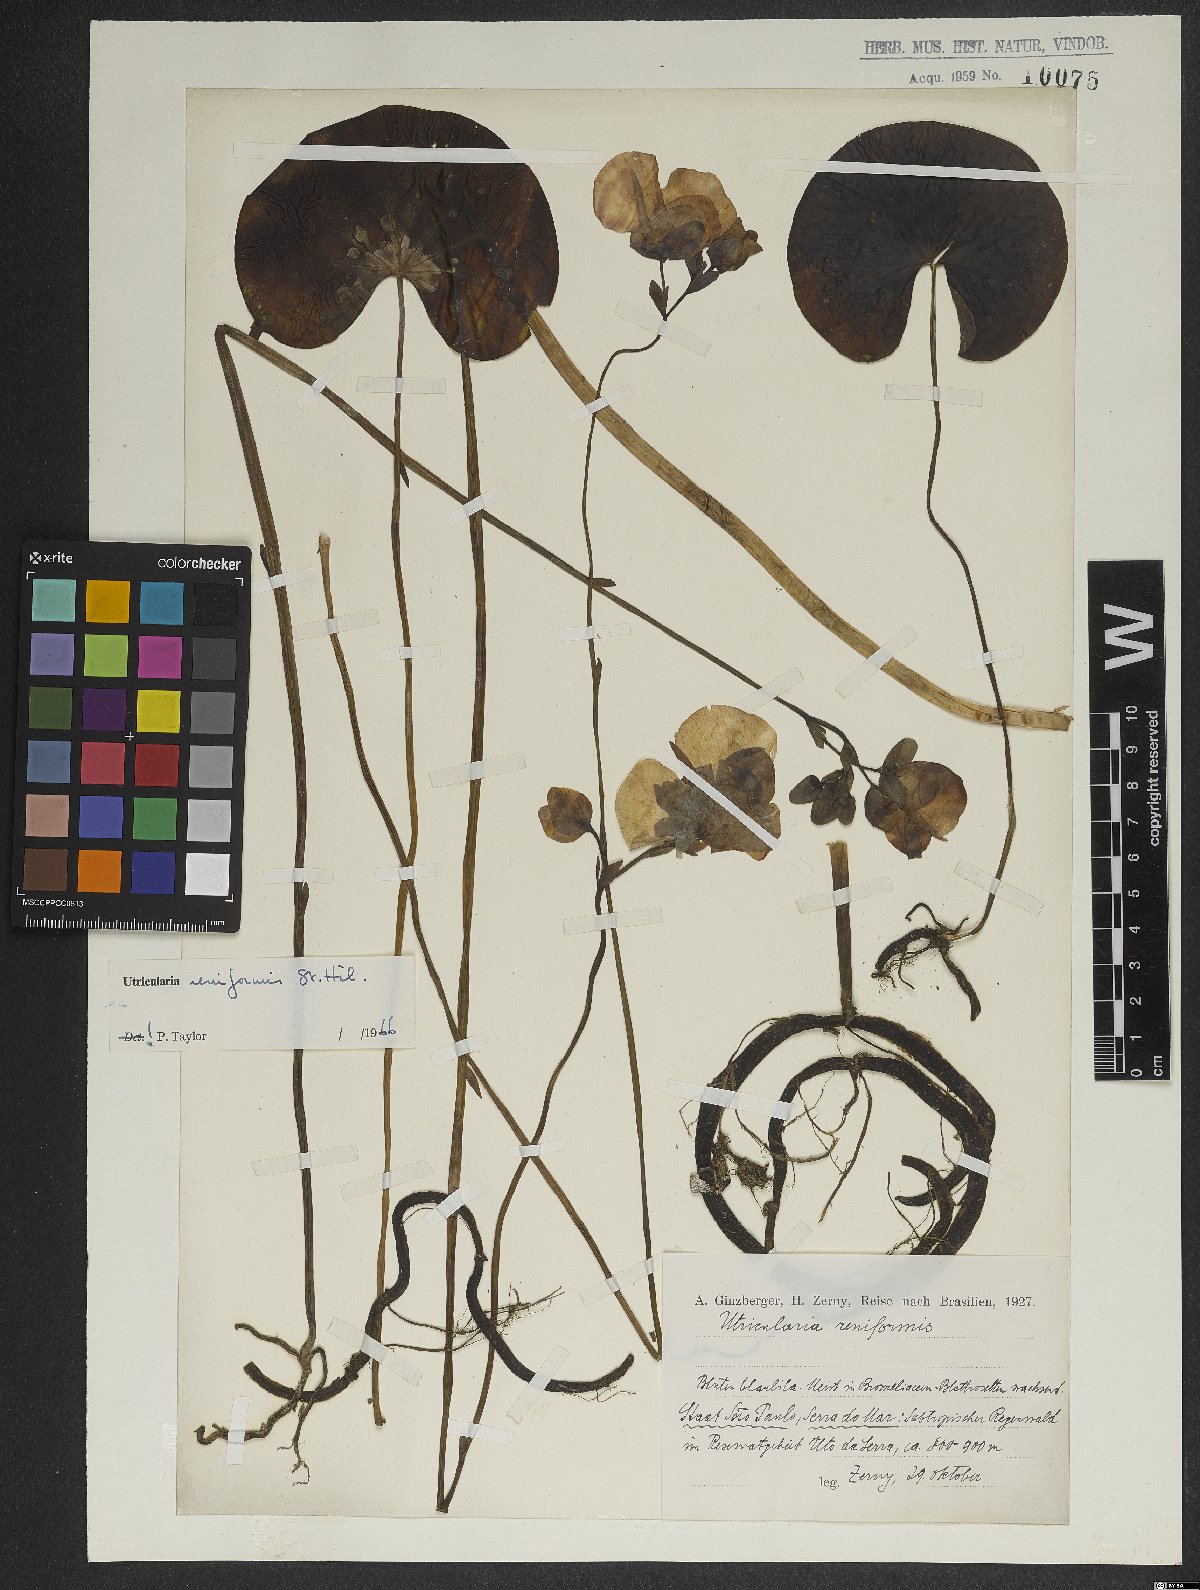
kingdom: Plantae
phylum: Tracheophyta
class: Magnoliopsida
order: Lamiales
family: Lentibulariaceae
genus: Utricularia
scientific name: Utricularia reniformis
